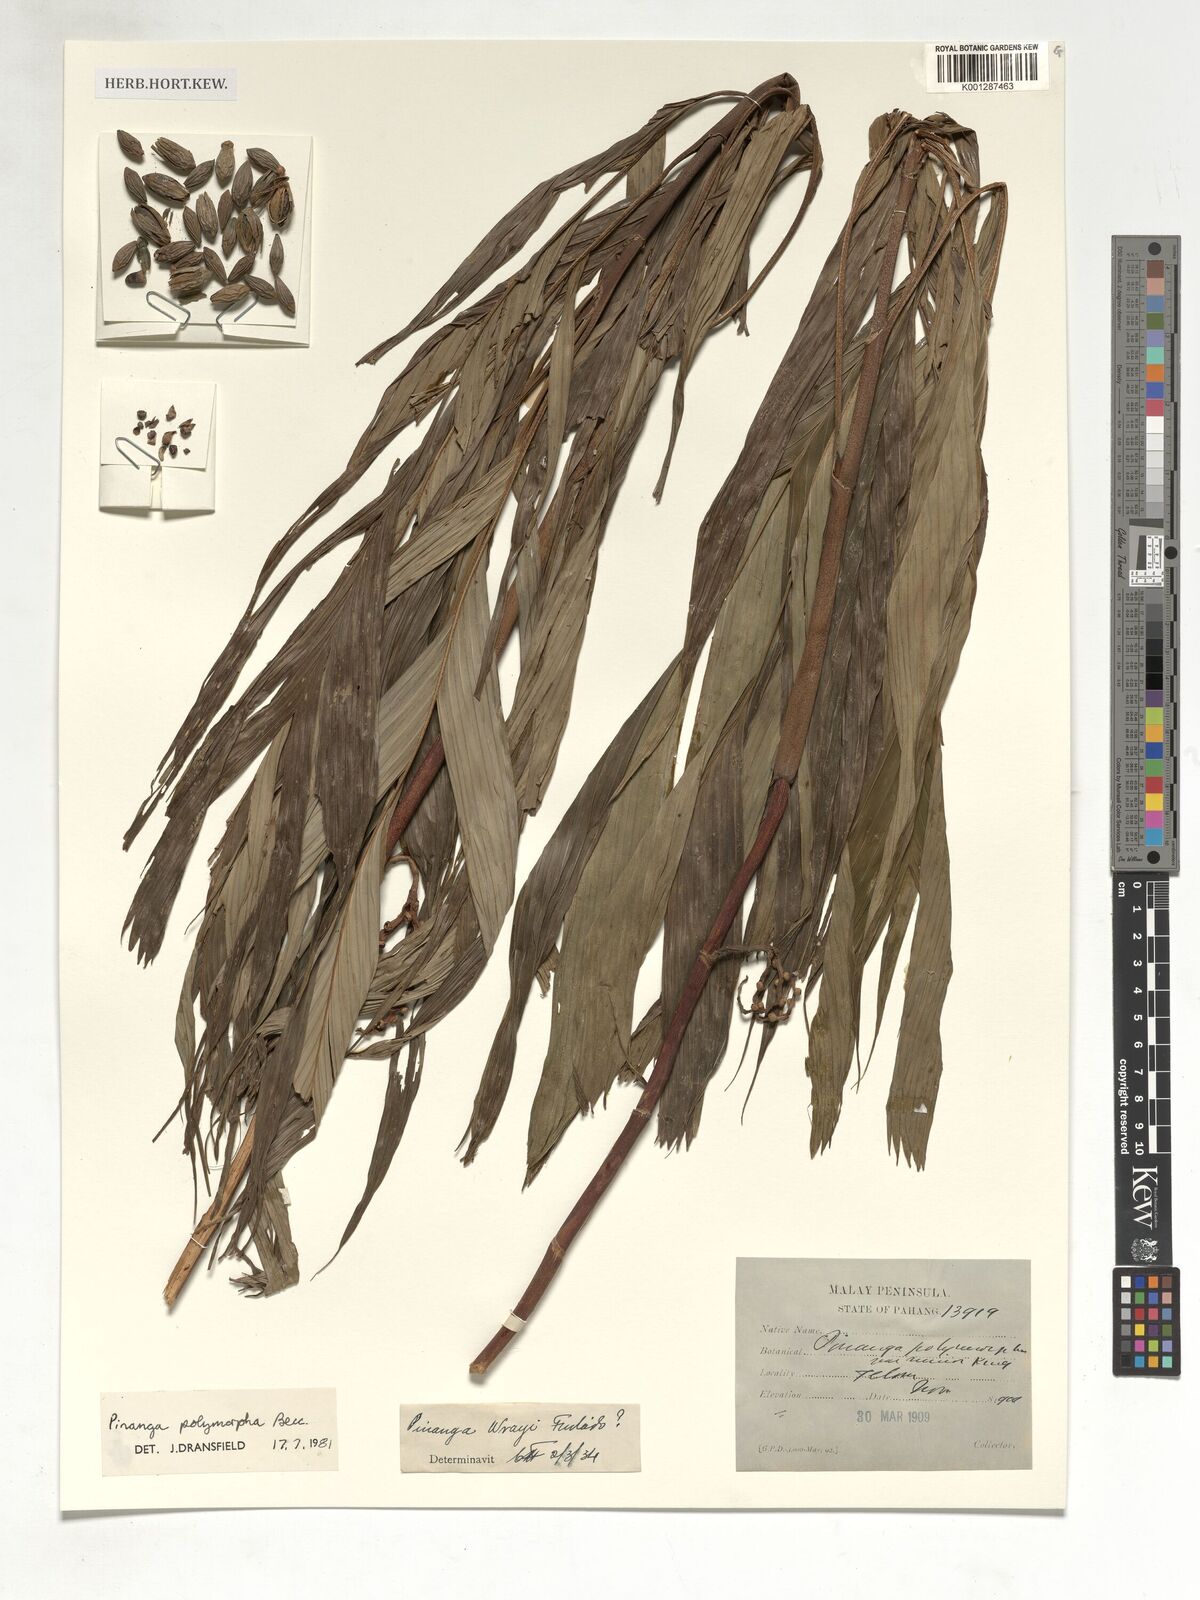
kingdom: Plantae
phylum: Tracheophyta
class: Liliopsida
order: Arecales
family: Arecaceae
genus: Pinanga
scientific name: Pinanga polymorpha
